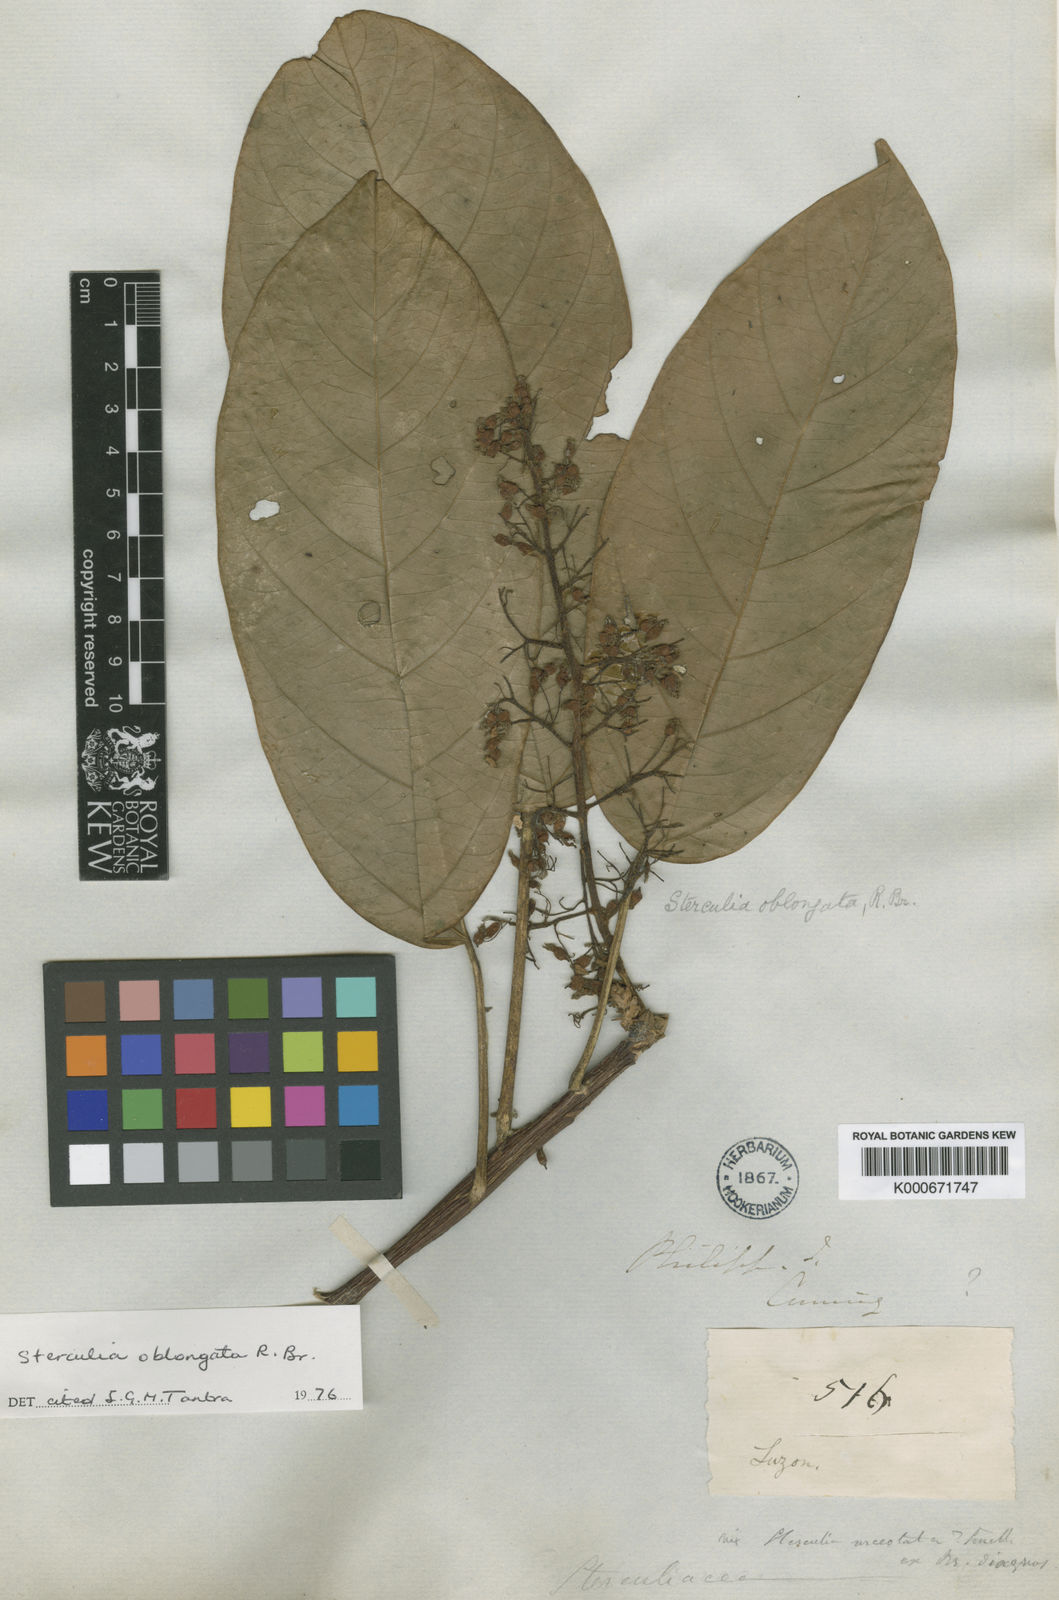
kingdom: Plantae
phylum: Tracheophyta
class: Magnoliopsida
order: Malvales
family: Malvaceae
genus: Sterculia
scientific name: Sterculia oblongata
